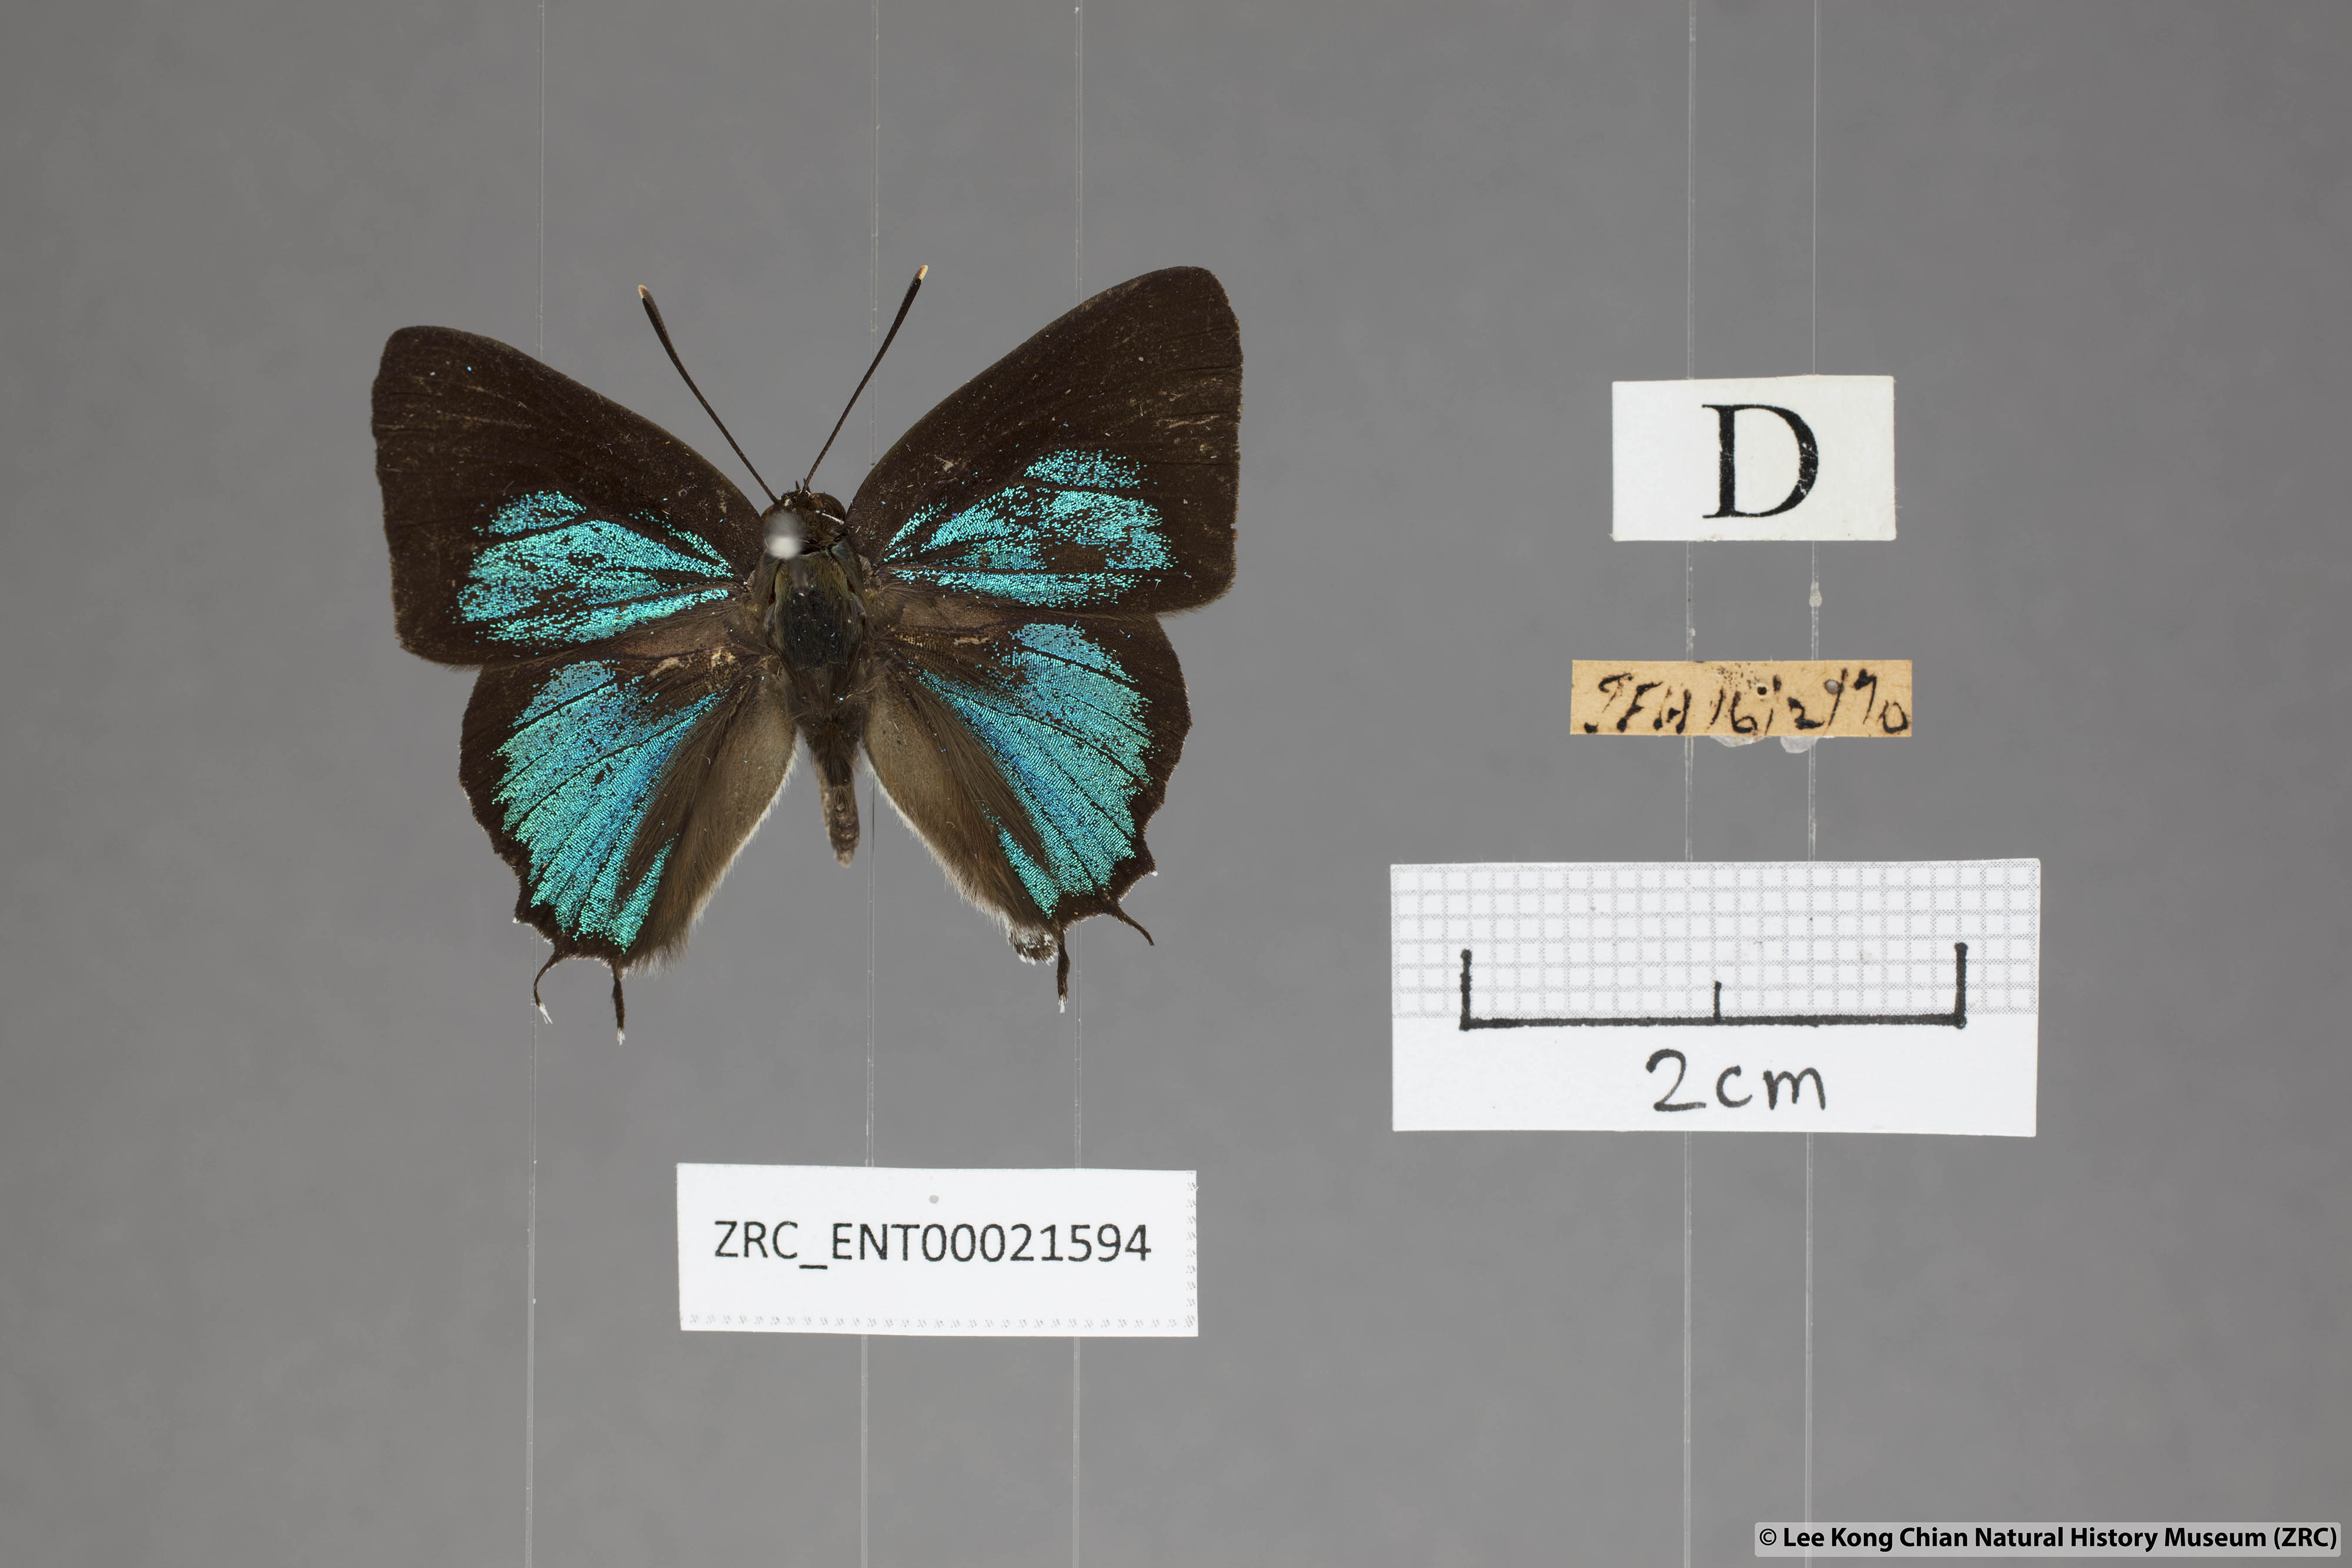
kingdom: Animalia
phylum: Arthropoda
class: Insecta
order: Lepidoptera
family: Lycaenidae
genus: Iraota
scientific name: Iraota rochana
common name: Scarce silverstreak blue
